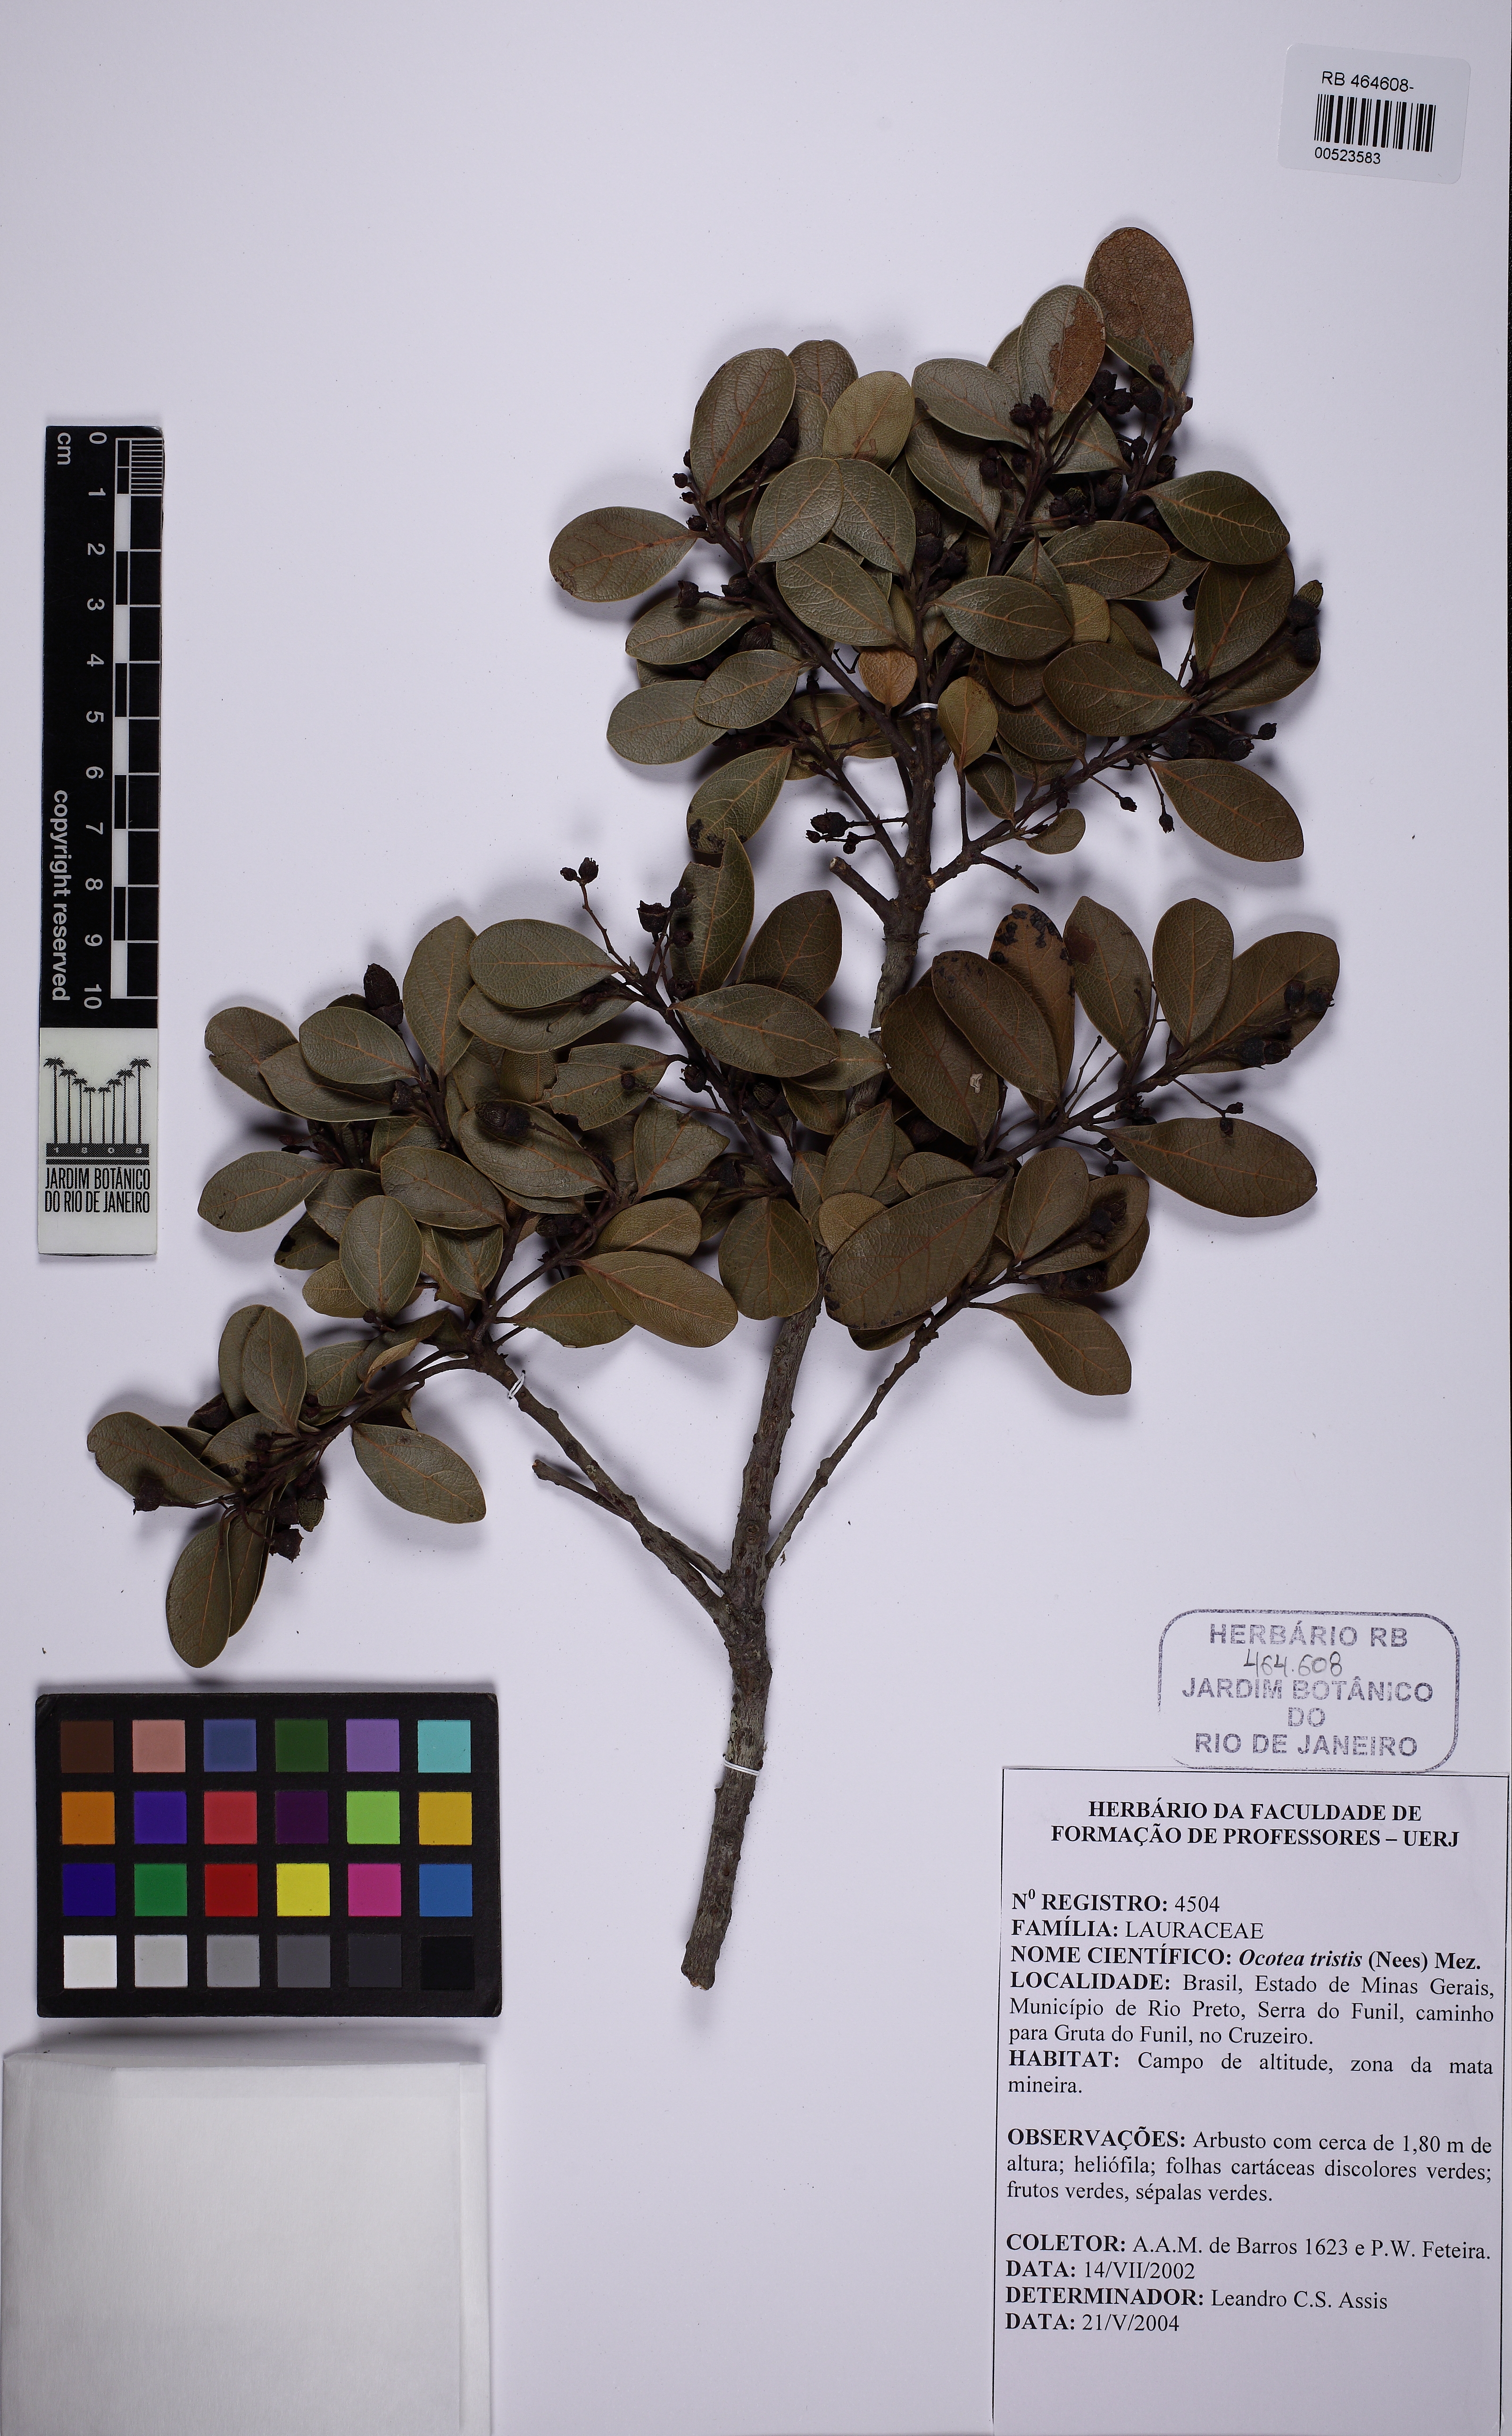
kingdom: Plantae
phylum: Tracheophyta
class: Magnoliopsida
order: Laurales
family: Lauraceae
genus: Mespilodaphne
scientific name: Mespilodaphne tristis
